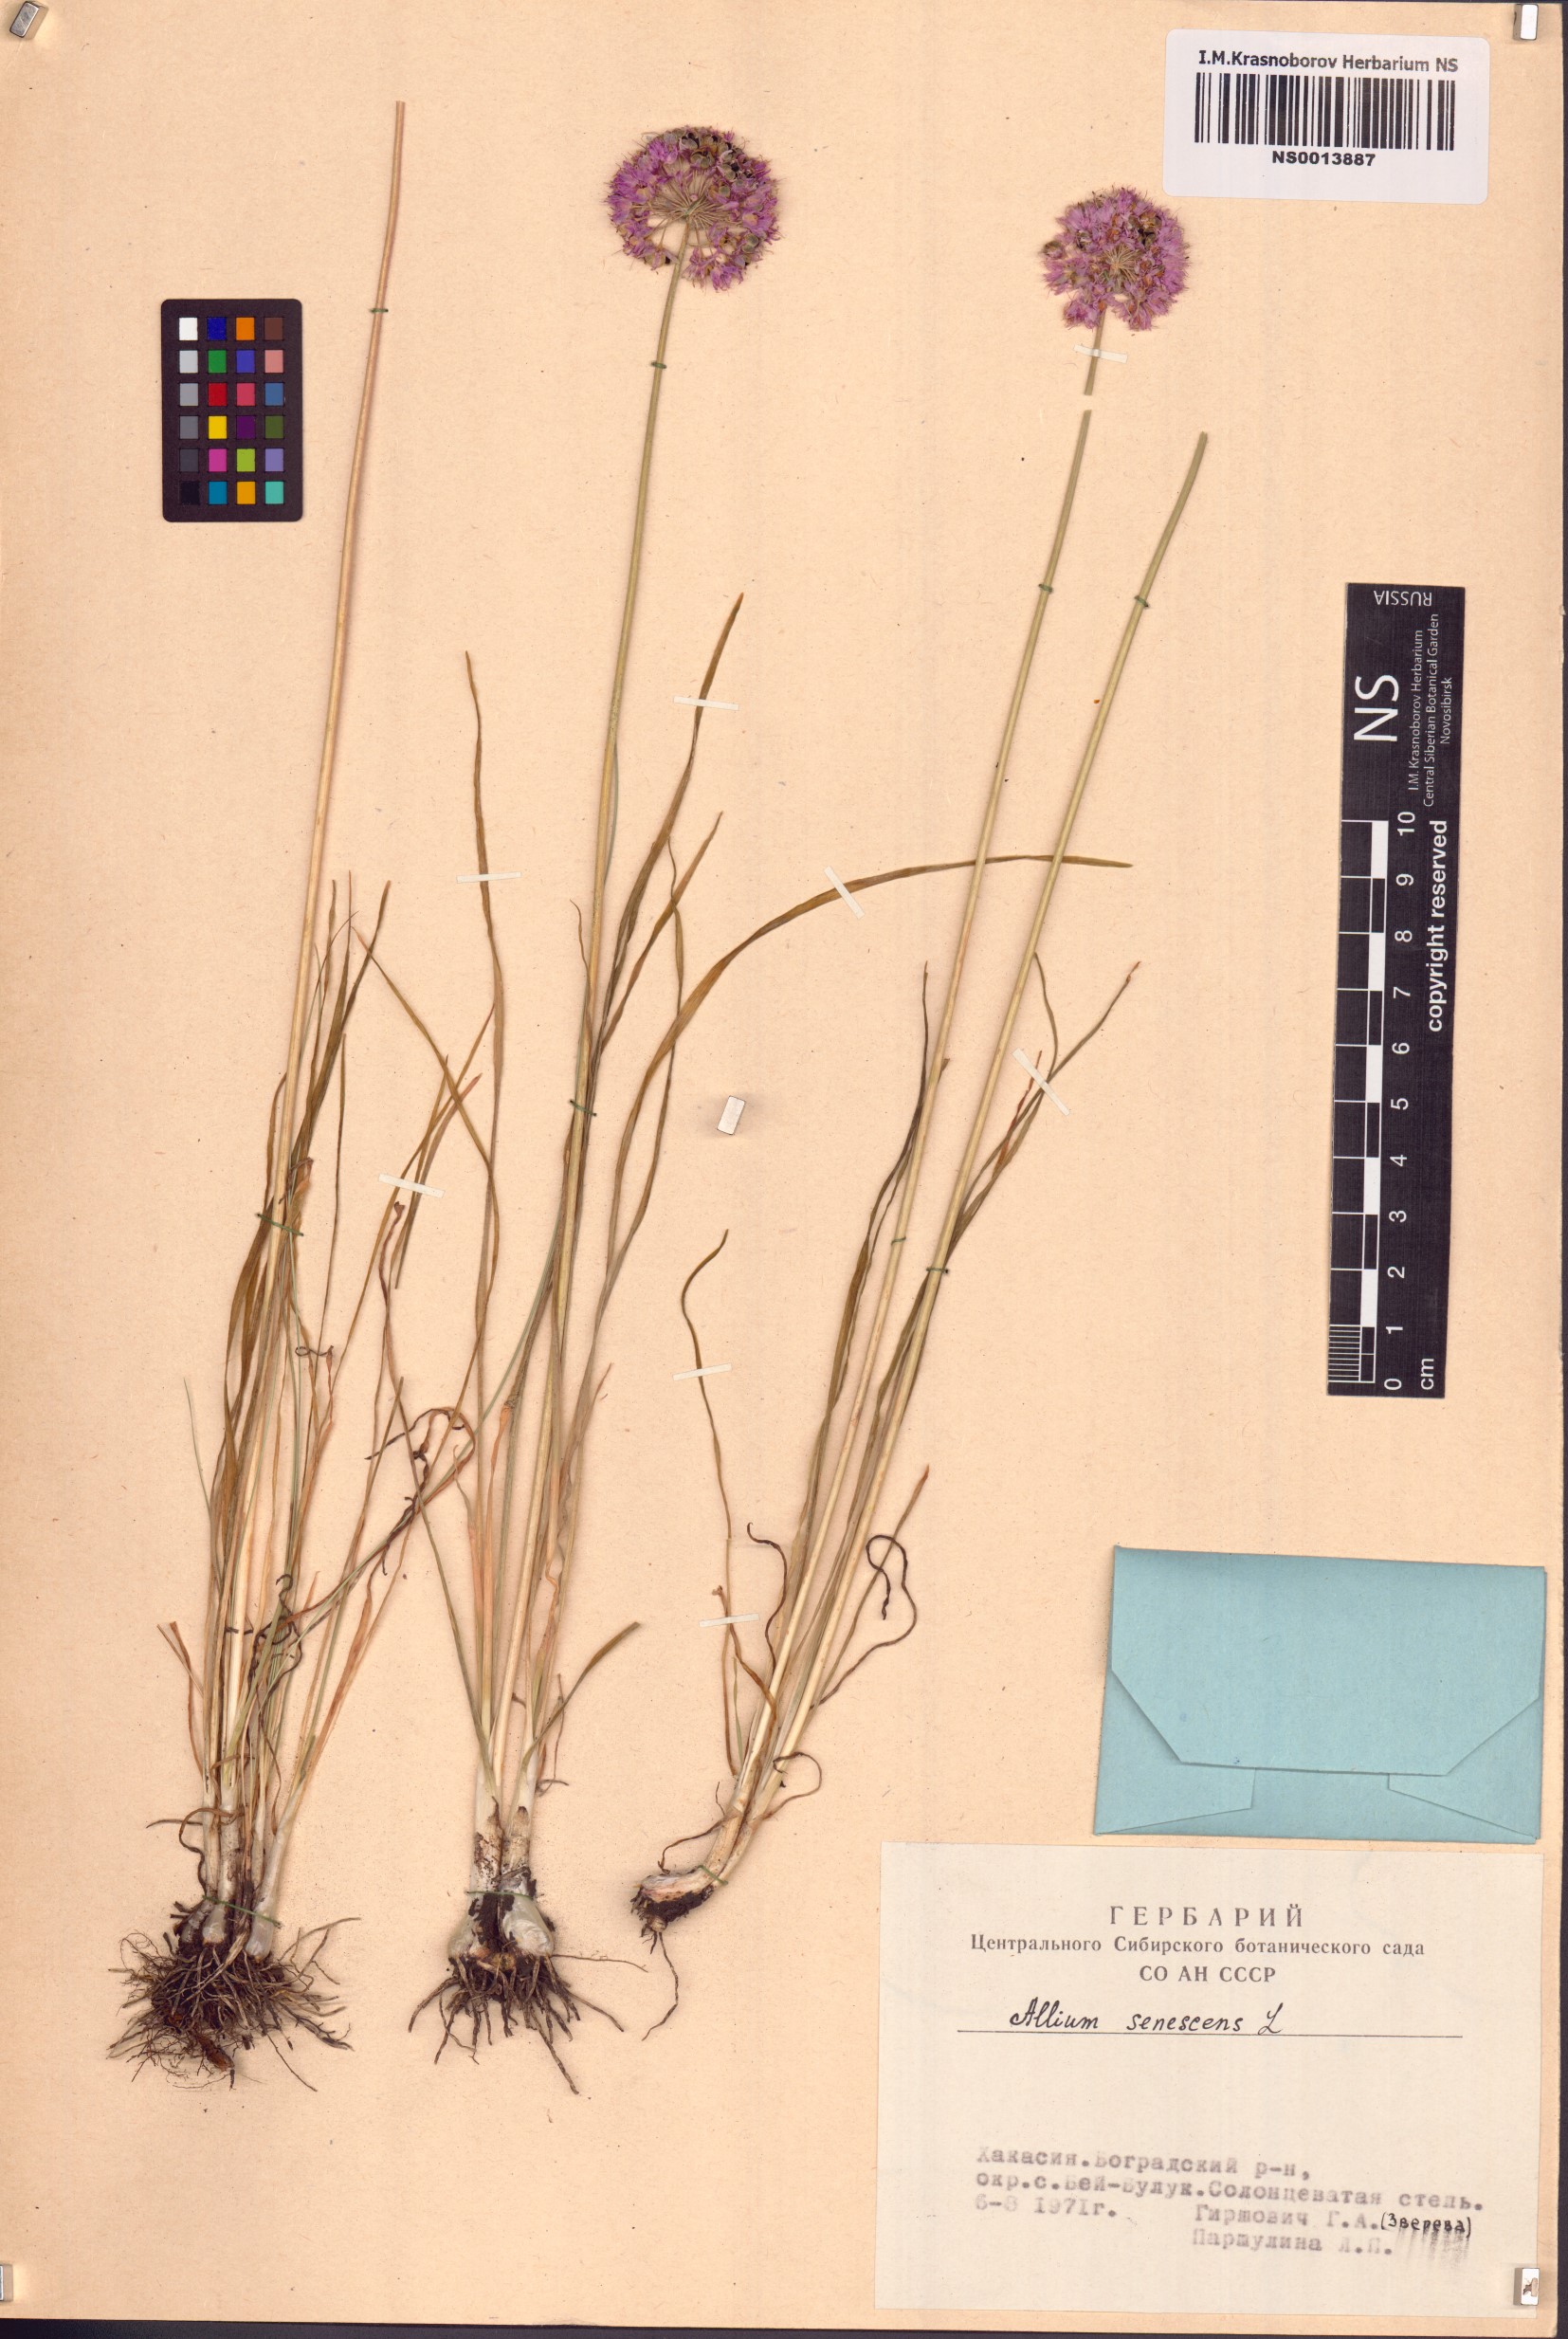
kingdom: Plantae
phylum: Tracheophyta
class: Liliopsida
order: Asparagales
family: Amaryllidaceae
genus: Allium
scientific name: Allium senescens
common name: German garlic
